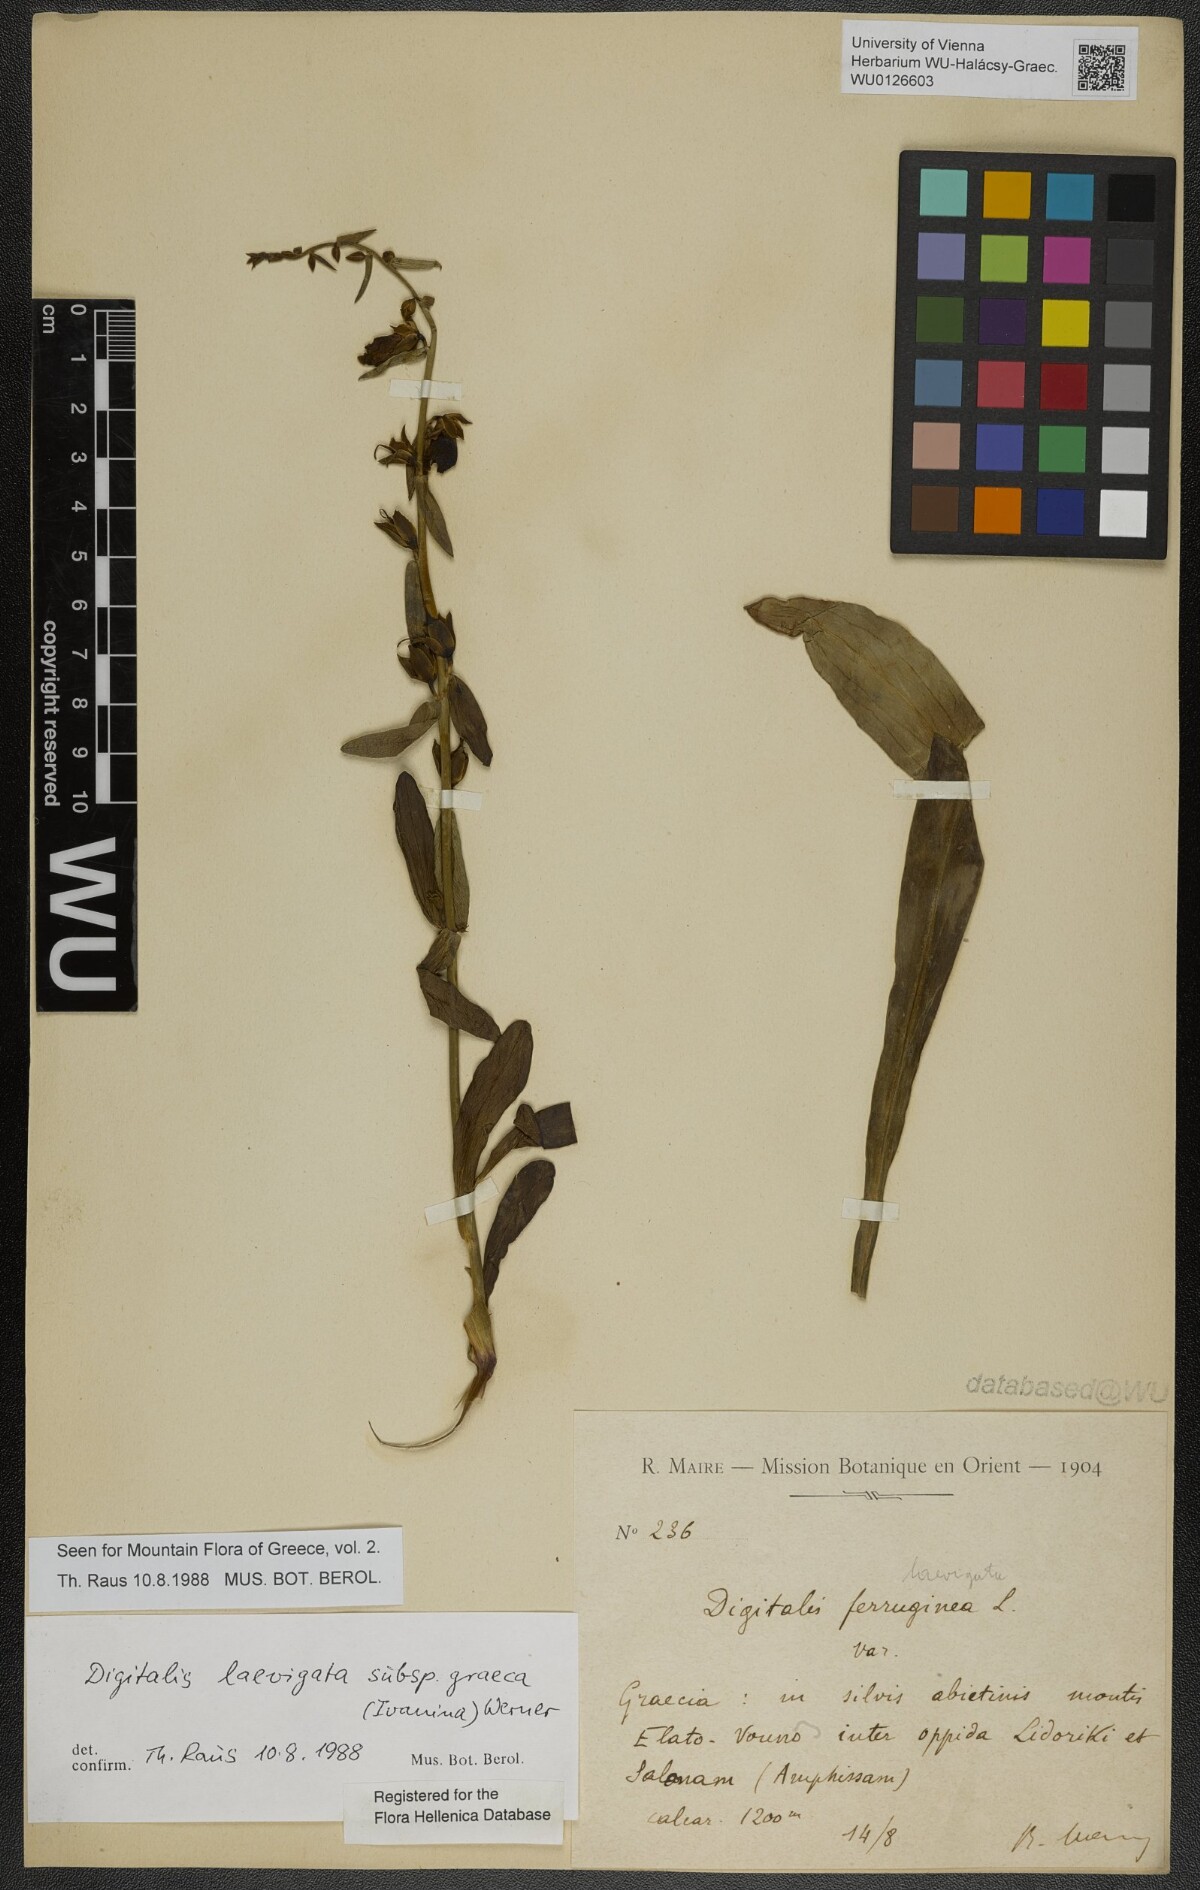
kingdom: Plantae
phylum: Tracheophyta
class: Magnoliopsida
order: Lamiales
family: Plantaginaceae
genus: Digitalis
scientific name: Digitalis laevigata
